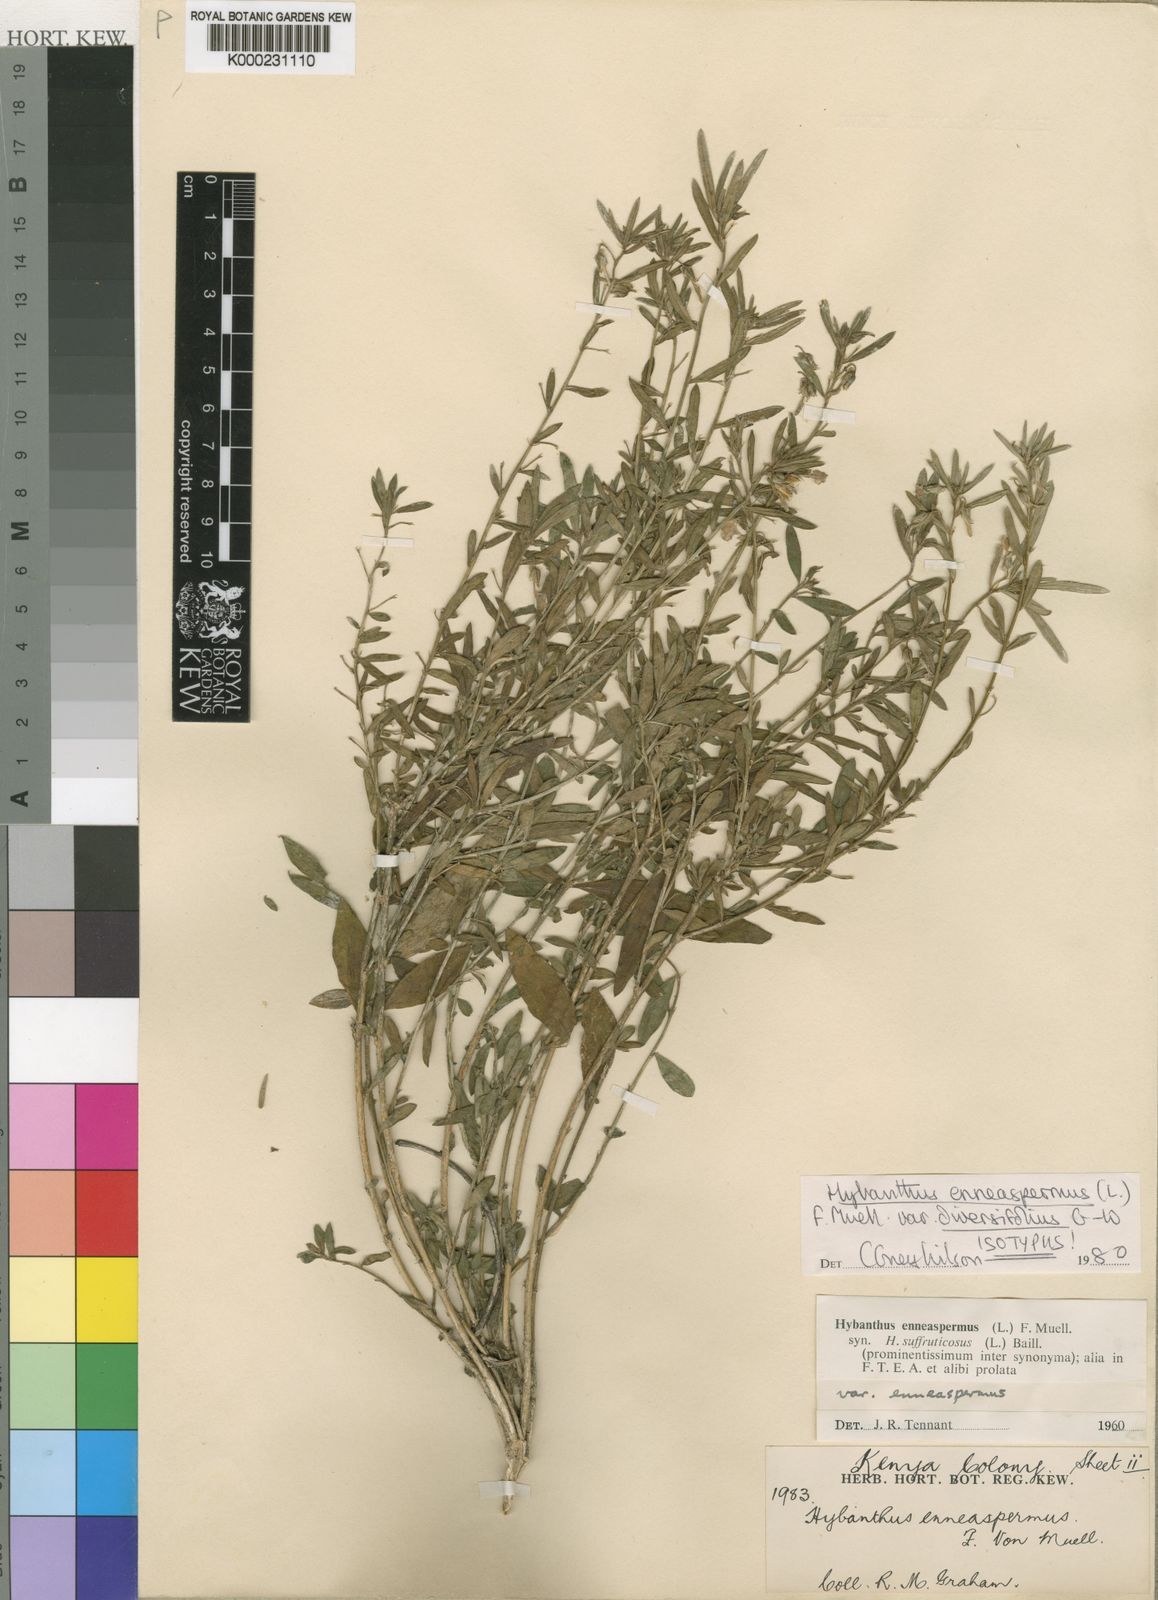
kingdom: Plantae
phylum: Tracheophyta
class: Magnoliopsida
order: Malpighiales
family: Violaceae
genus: Pigea
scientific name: Pigea enneasperma
